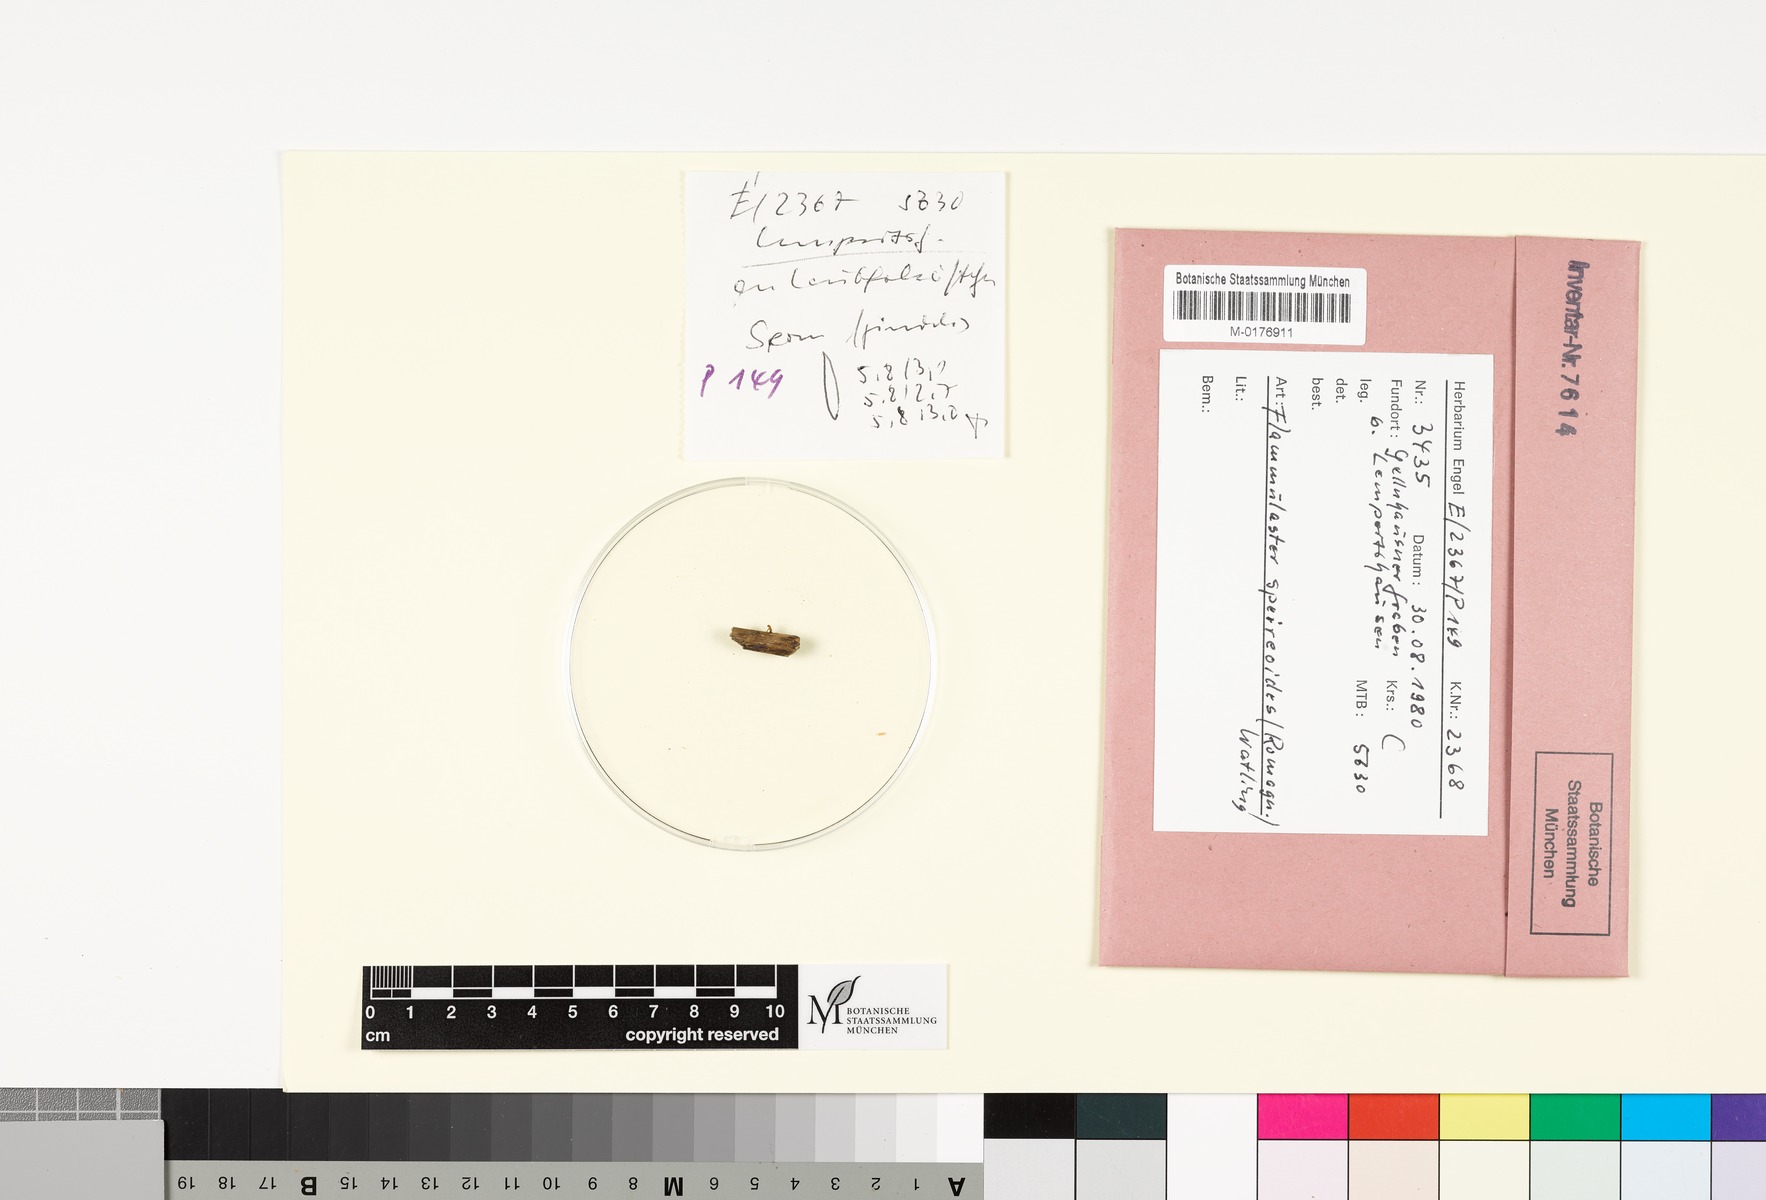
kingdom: Fungi
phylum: Basidiomycota
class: Agaricomycetes
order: Agaricales
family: Tubariaceae
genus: Flammulaster
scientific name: Flammulaster speireoides
